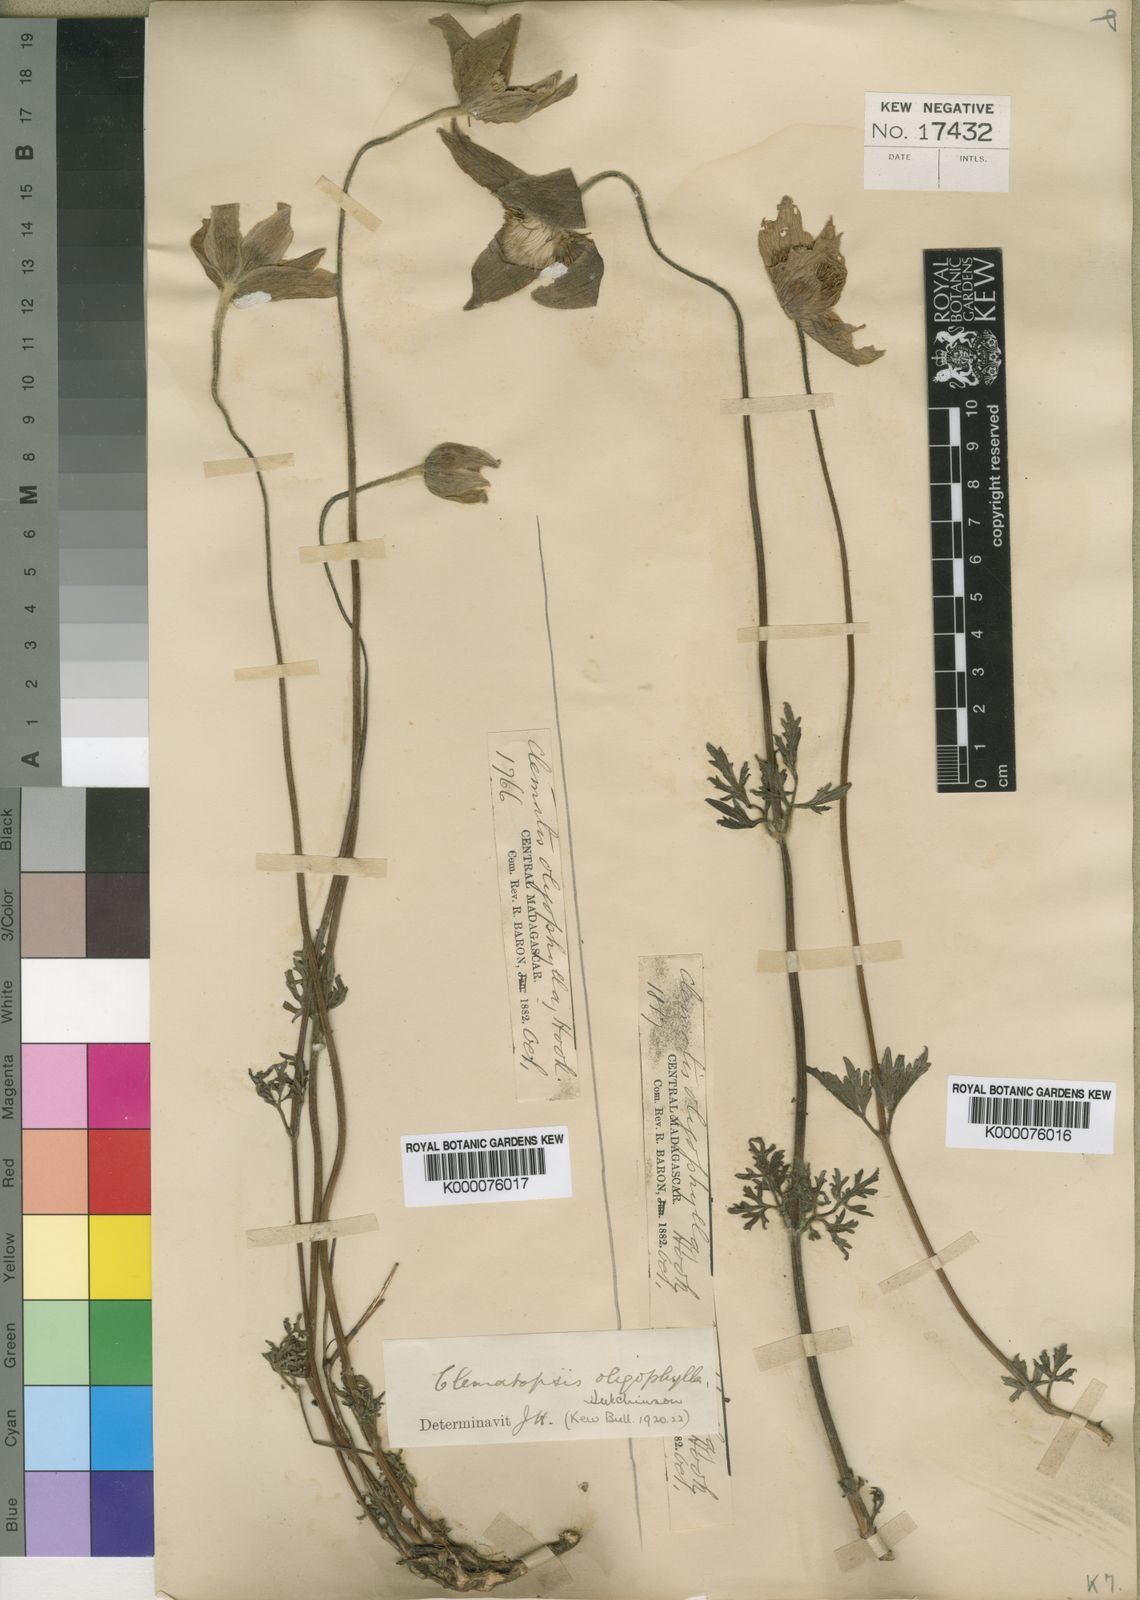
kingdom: Plantae
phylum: Tracheophyta
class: Magnoliopsida
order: Ranunculales
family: Ranunculaceae
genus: Clematis
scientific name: Clematis oligophylla
